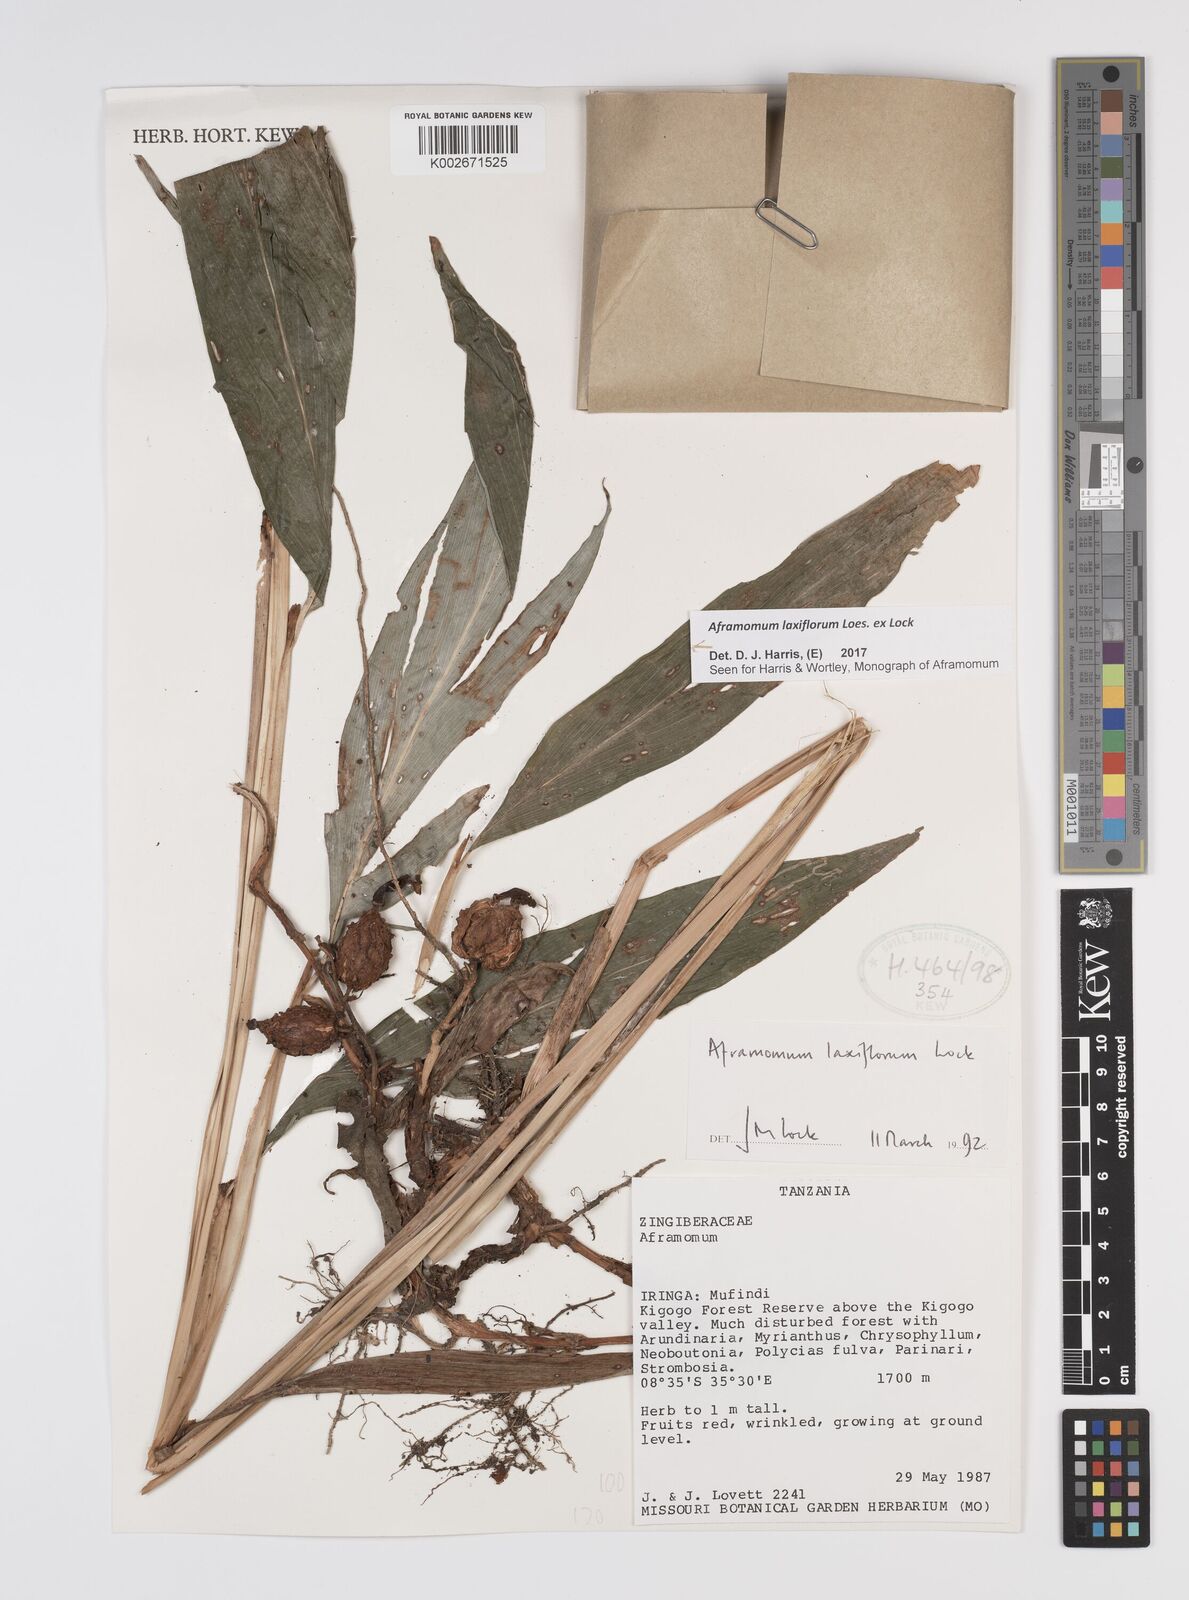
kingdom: Plantae
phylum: Tracheophyta
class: Liliopsida
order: Zingiberales
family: Zingiberaceae
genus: Aframomum
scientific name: Aframomum laxiflorum
